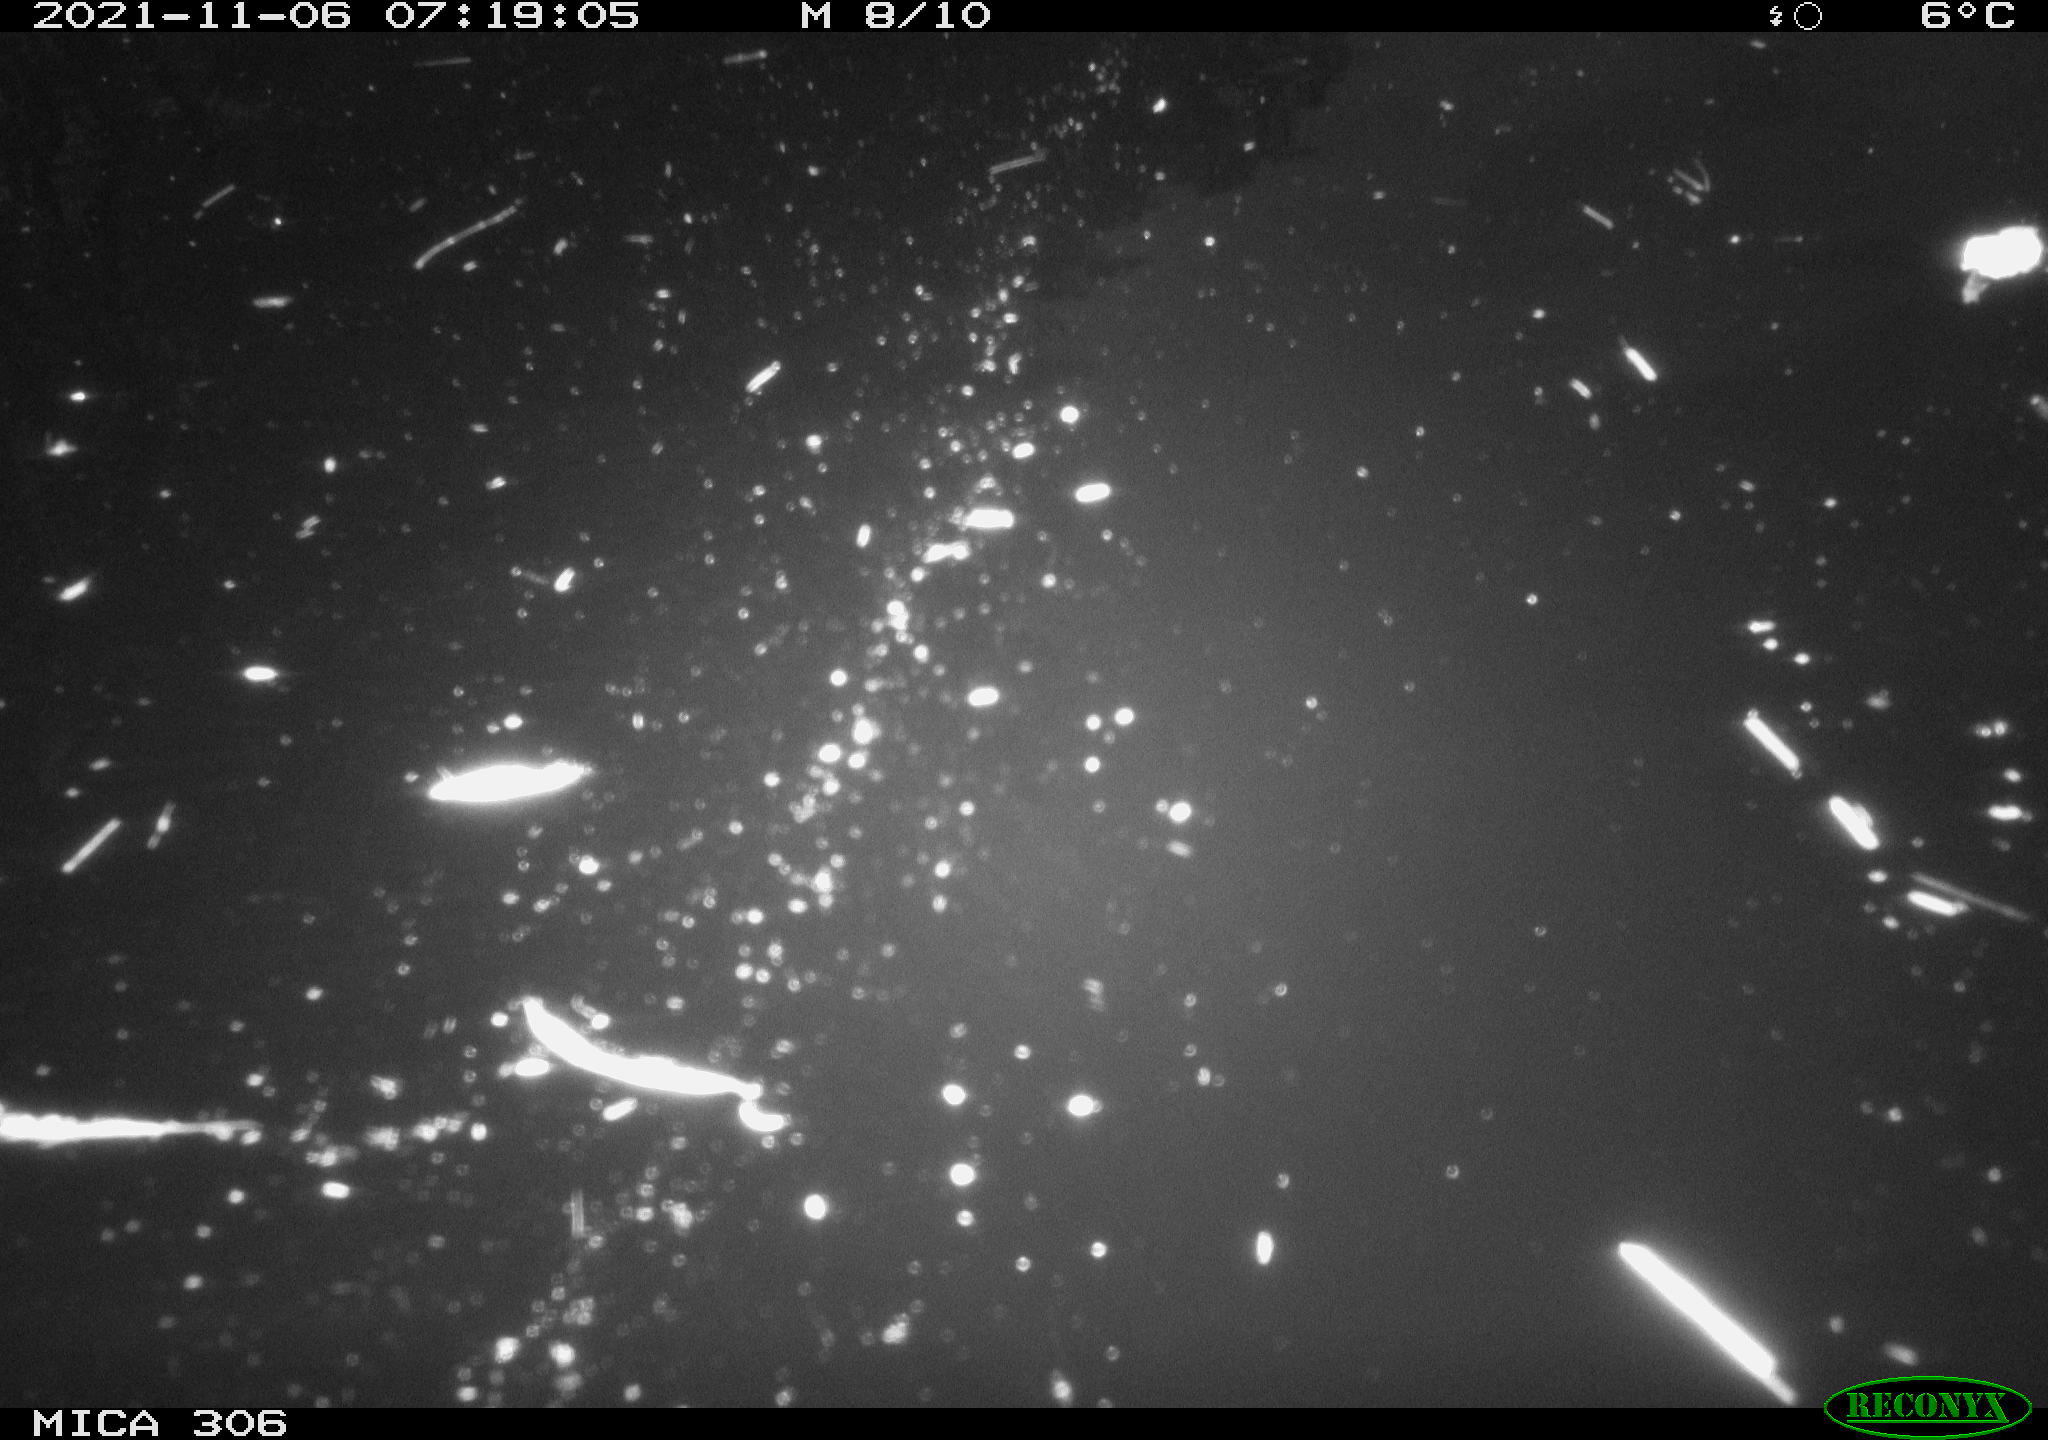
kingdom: Animalia
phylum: Chordata
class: Aves
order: Gruiformes
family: Rallidae
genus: Gallinula
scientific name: Gallinula chloropus
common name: Common moorhen
